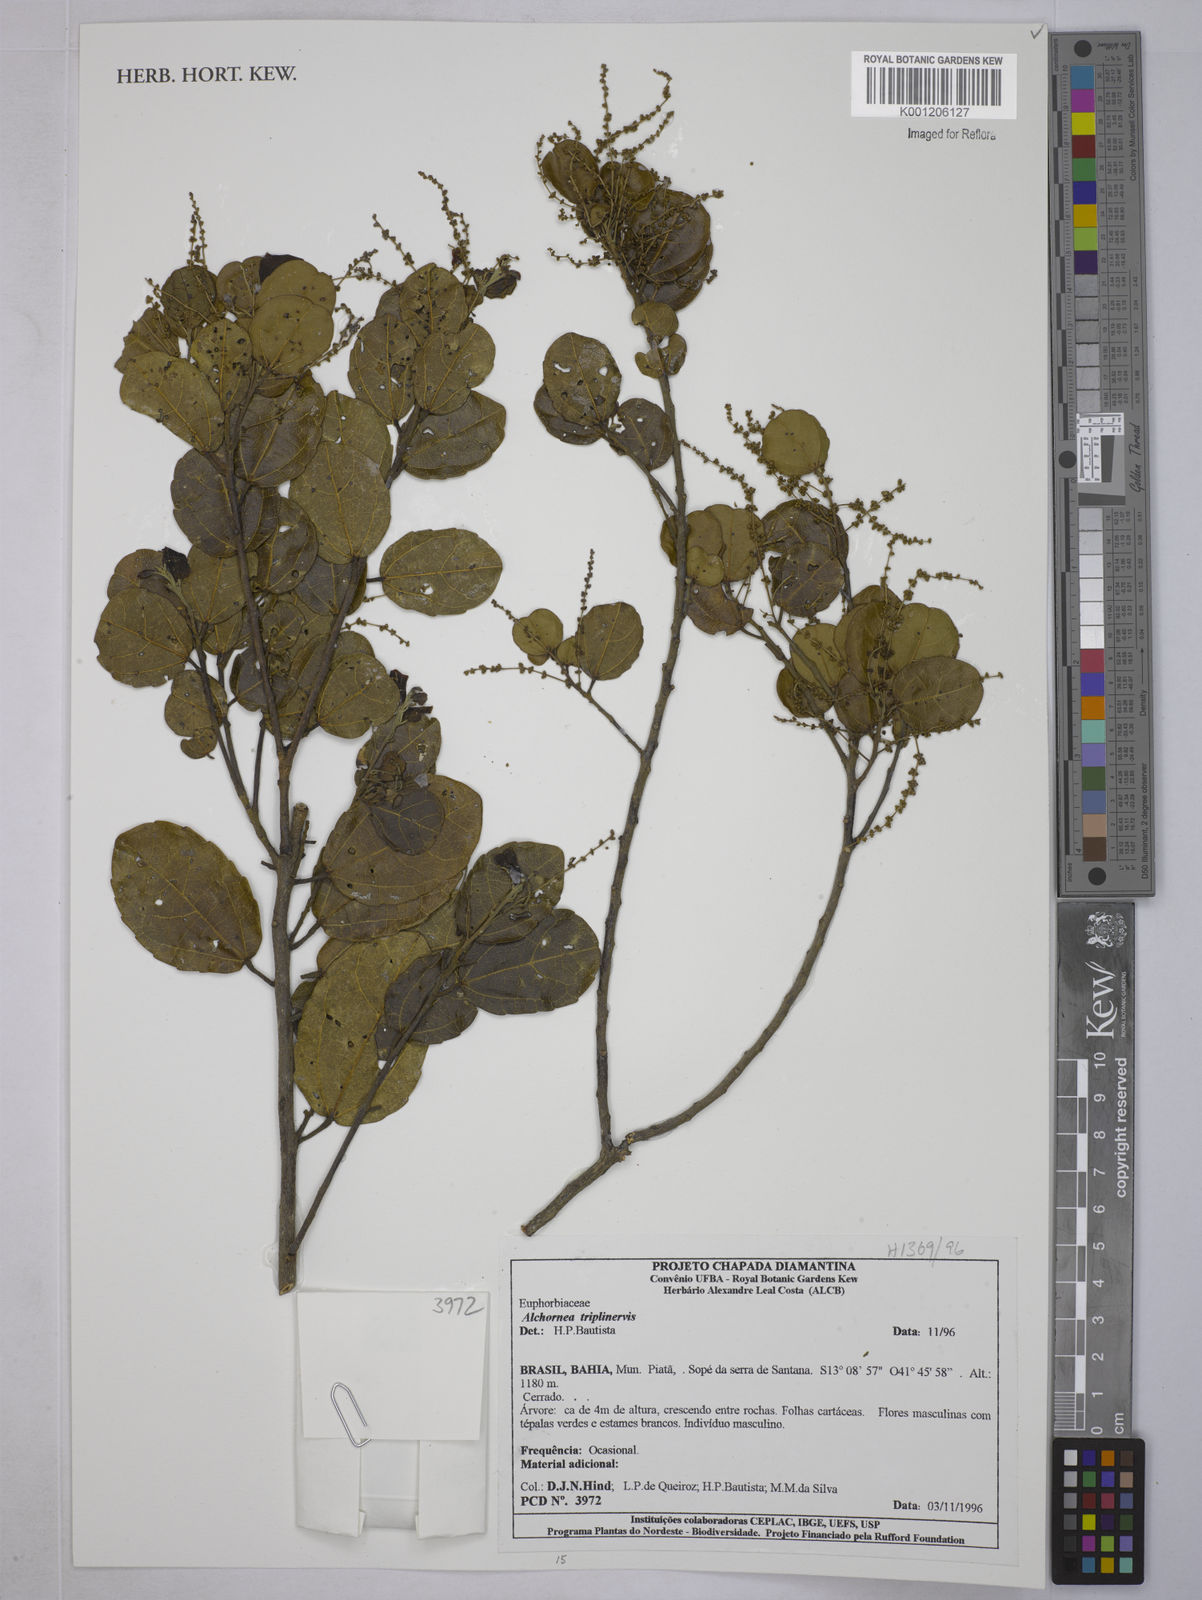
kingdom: Plantae
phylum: Tracheophyta
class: Magnoliopsida
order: Malpighiales
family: Euphorbiaceae
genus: Alchornea
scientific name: Alchornea
